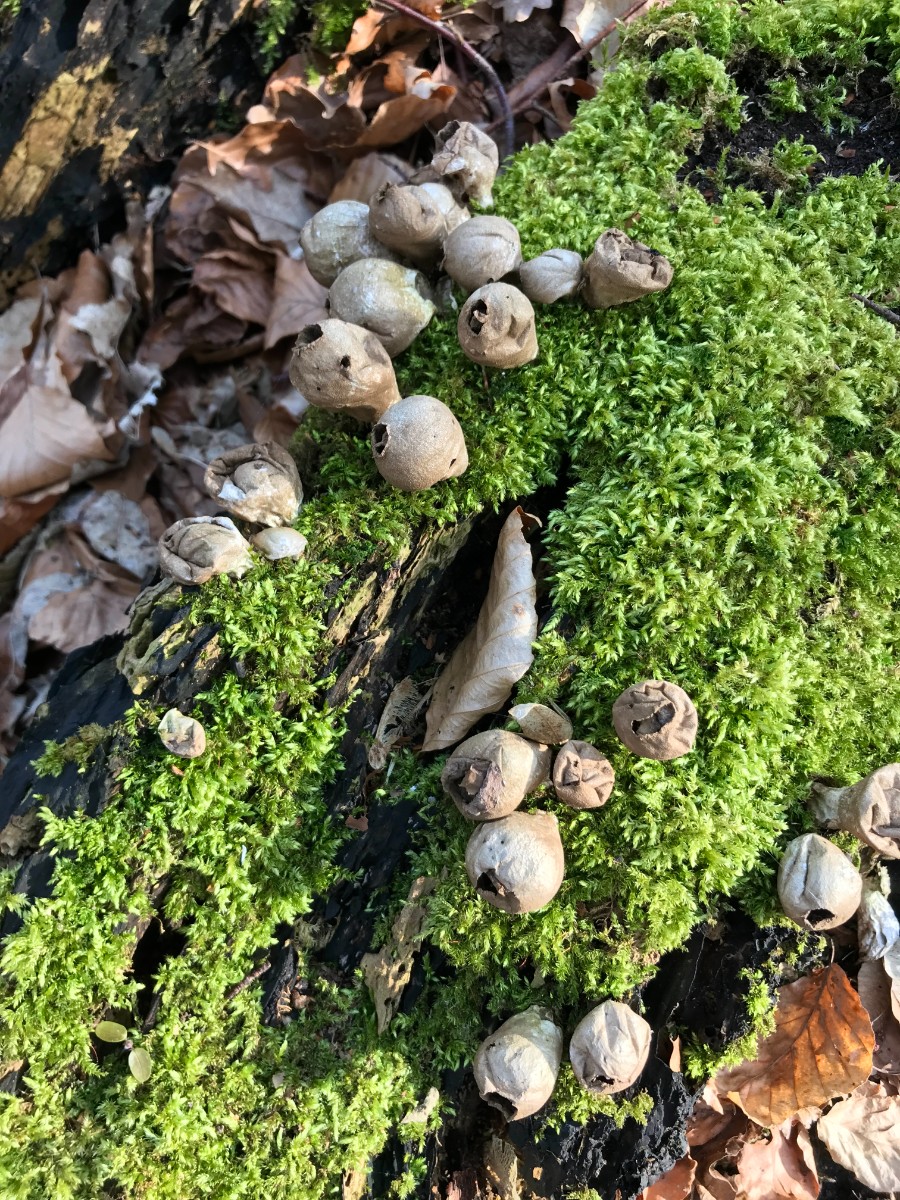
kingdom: Fungi
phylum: Basidiomycota
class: Agaricomycetes
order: Agaricales
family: Lycoperdaceae
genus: Apioperdon
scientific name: Apioperdon pyriforme
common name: pære-støvbold
